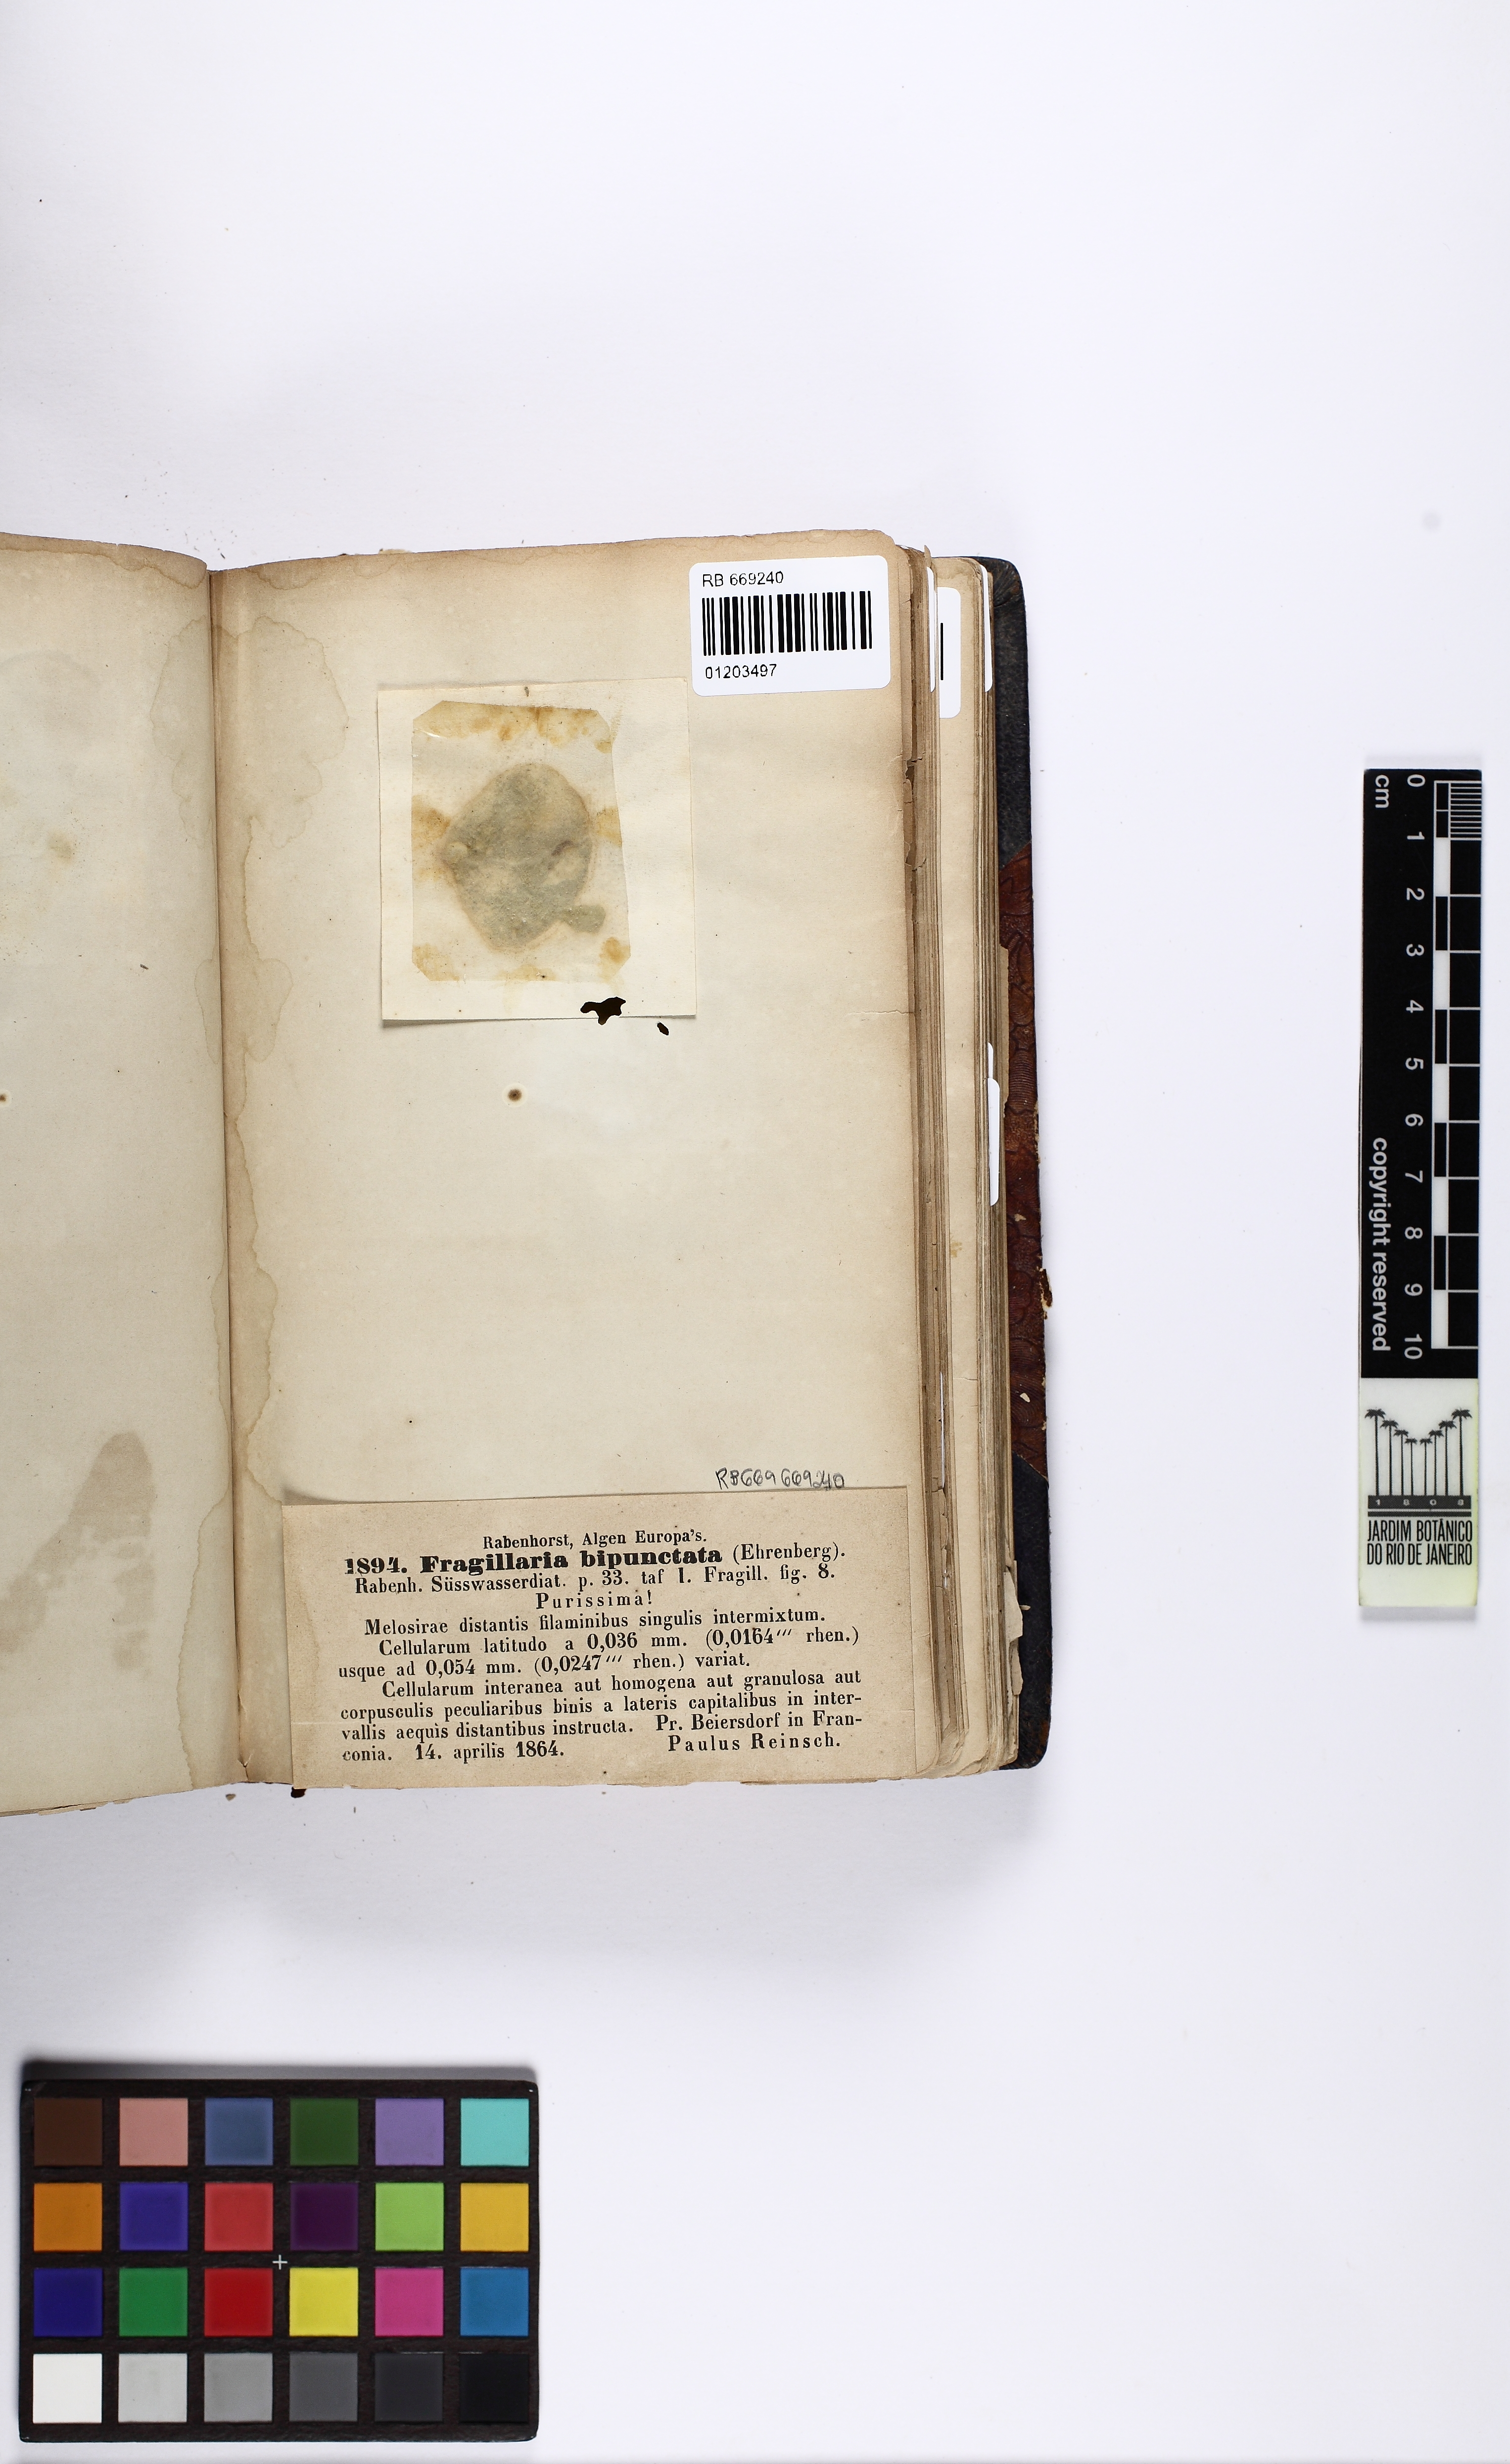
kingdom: Chromista
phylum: Ochrophyta
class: Bacillariophyceae
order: Fragilariales
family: Fragilariaceae
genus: Fragilaria
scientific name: Fragilaria bipunctata
